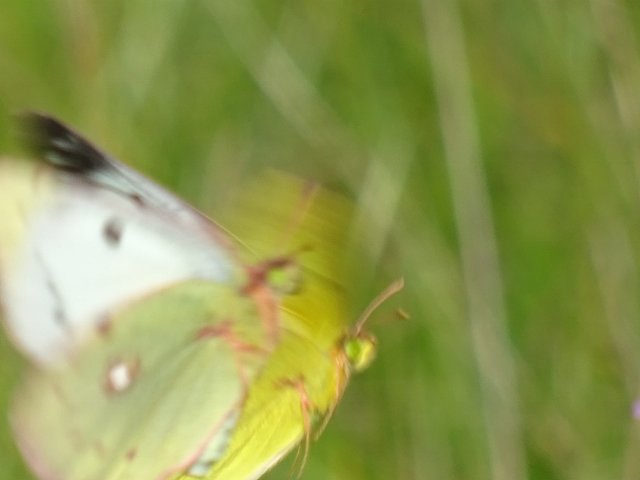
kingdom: Animalia
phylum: Arthropoda
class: Insecta
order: Lepidoptera
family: Pieridae
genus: Colias
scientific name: Colias philodice
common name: Clouded Sulphur
